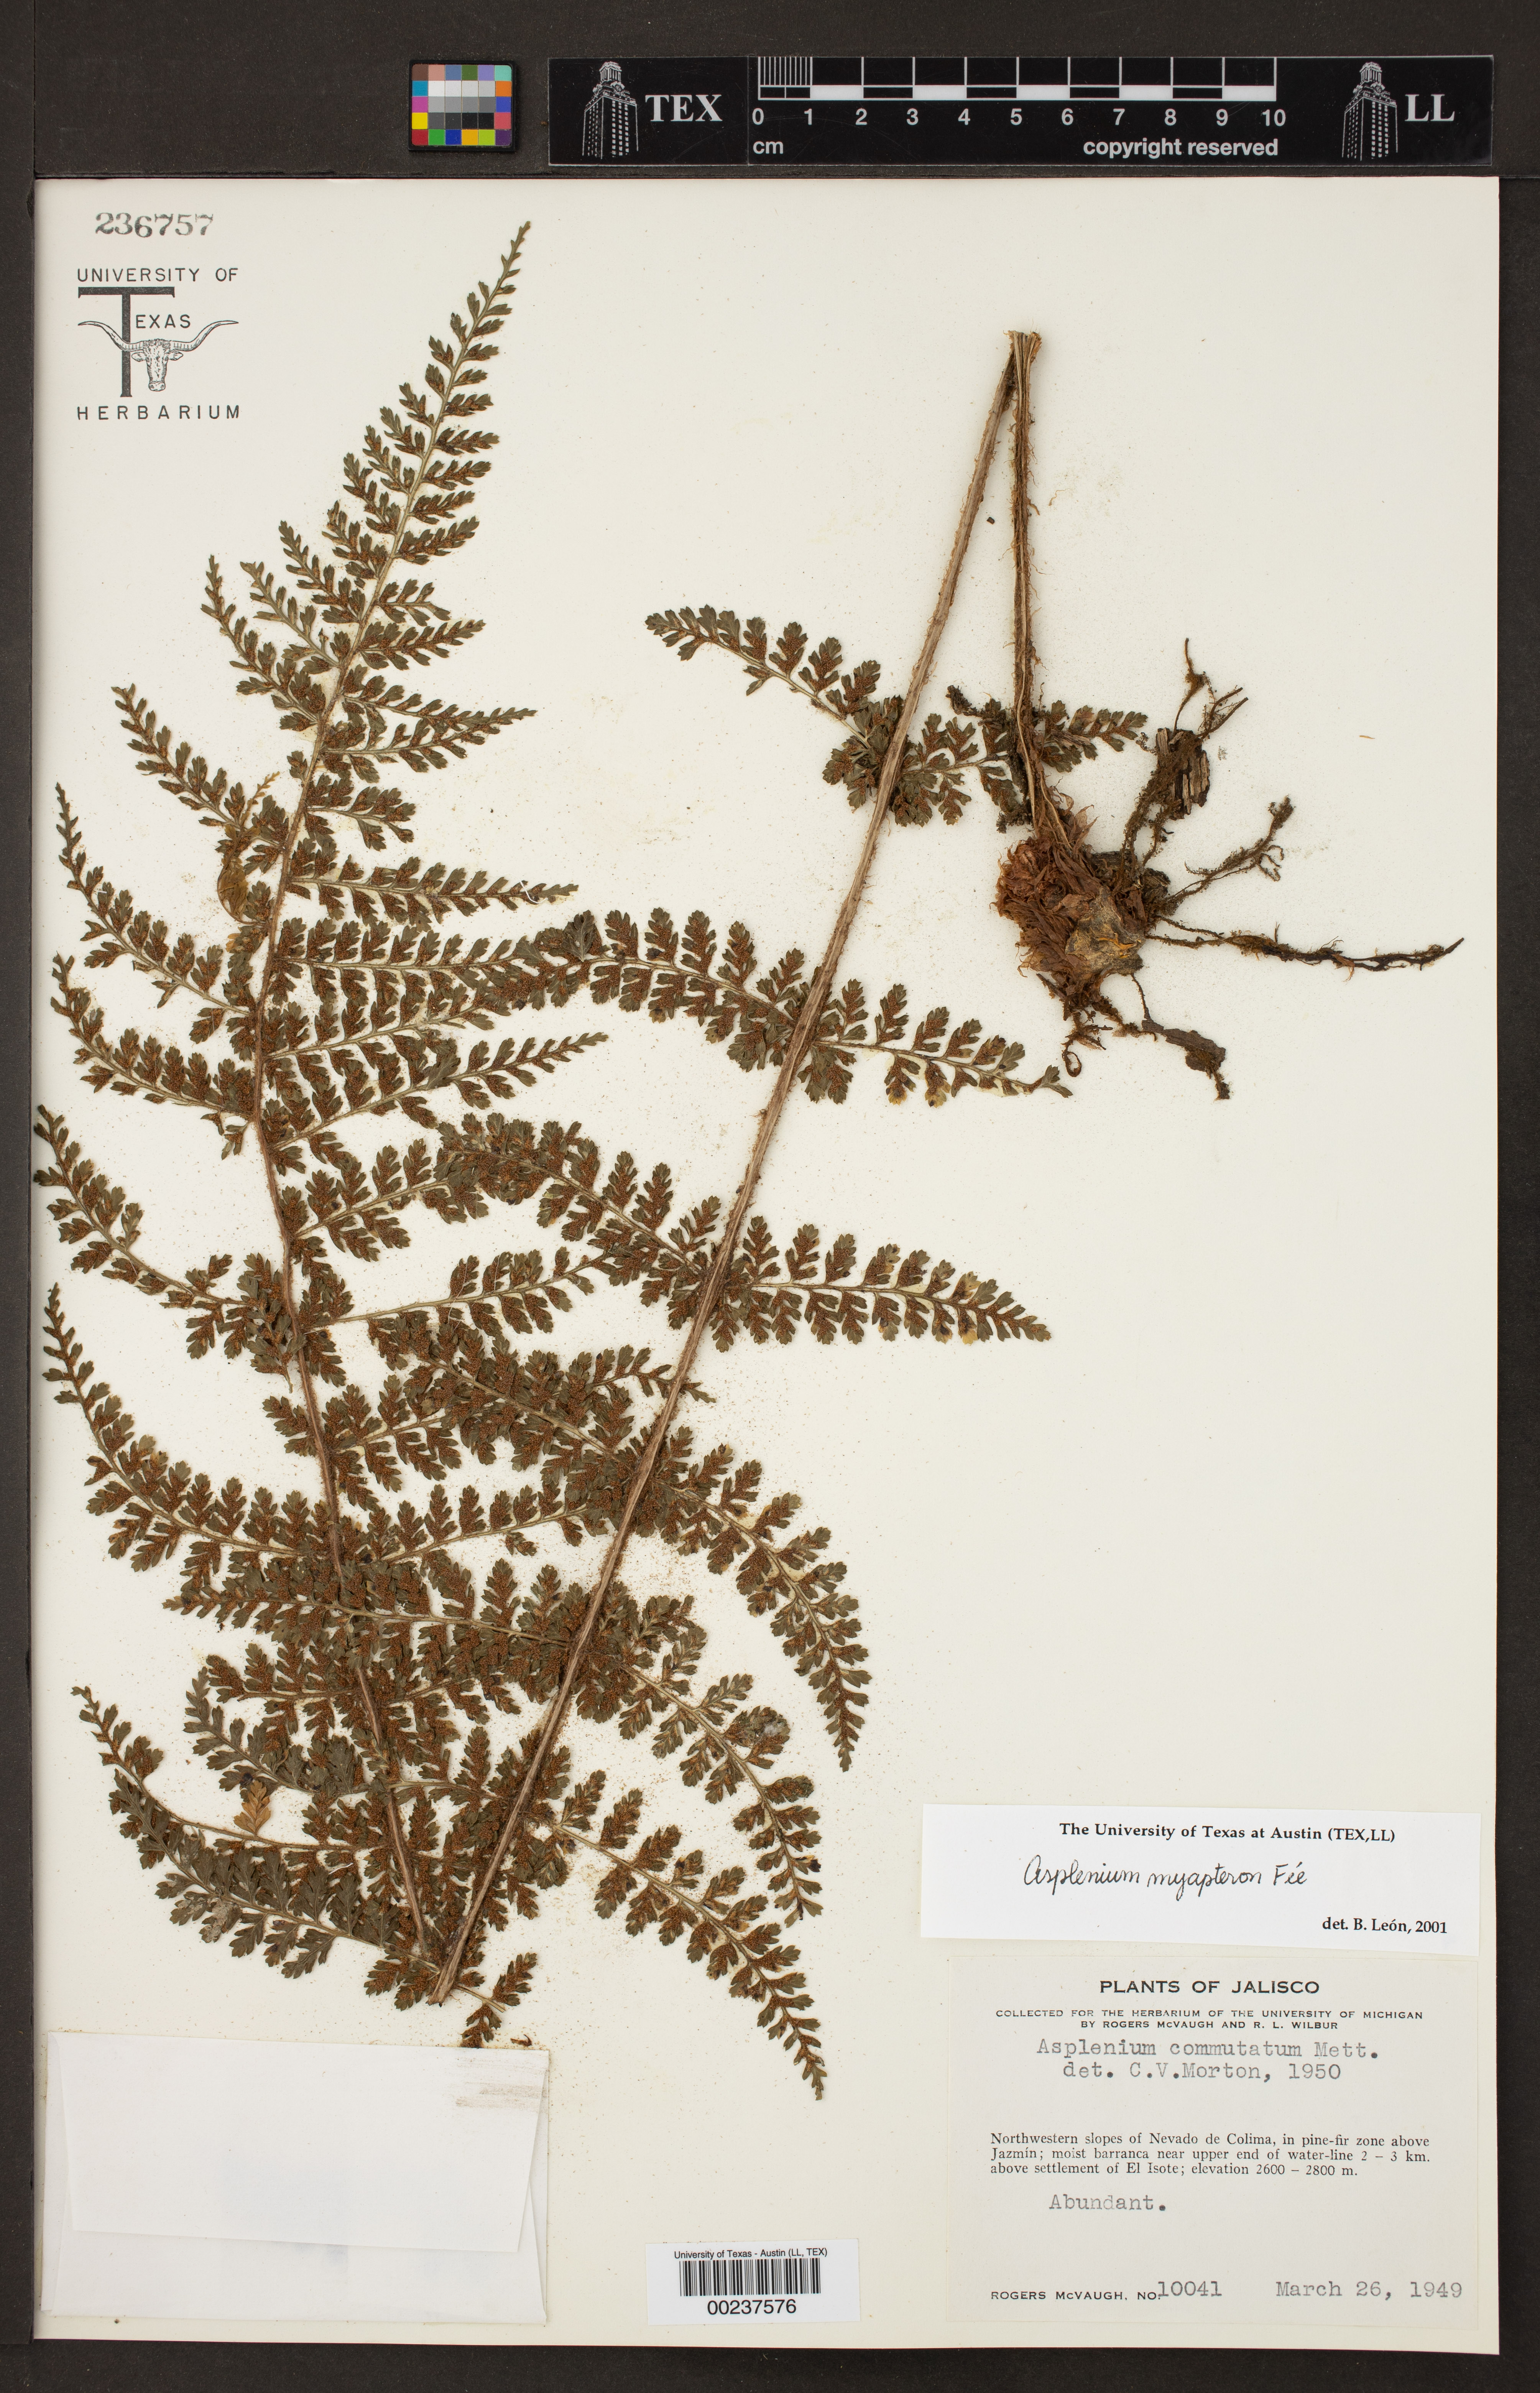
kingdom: Plantae
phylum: Tracheophyta
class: Polypodiopsida
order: Polypodiales
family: Aspleniaceae
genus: Asplenium
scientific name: Asplenium blepharophorum
